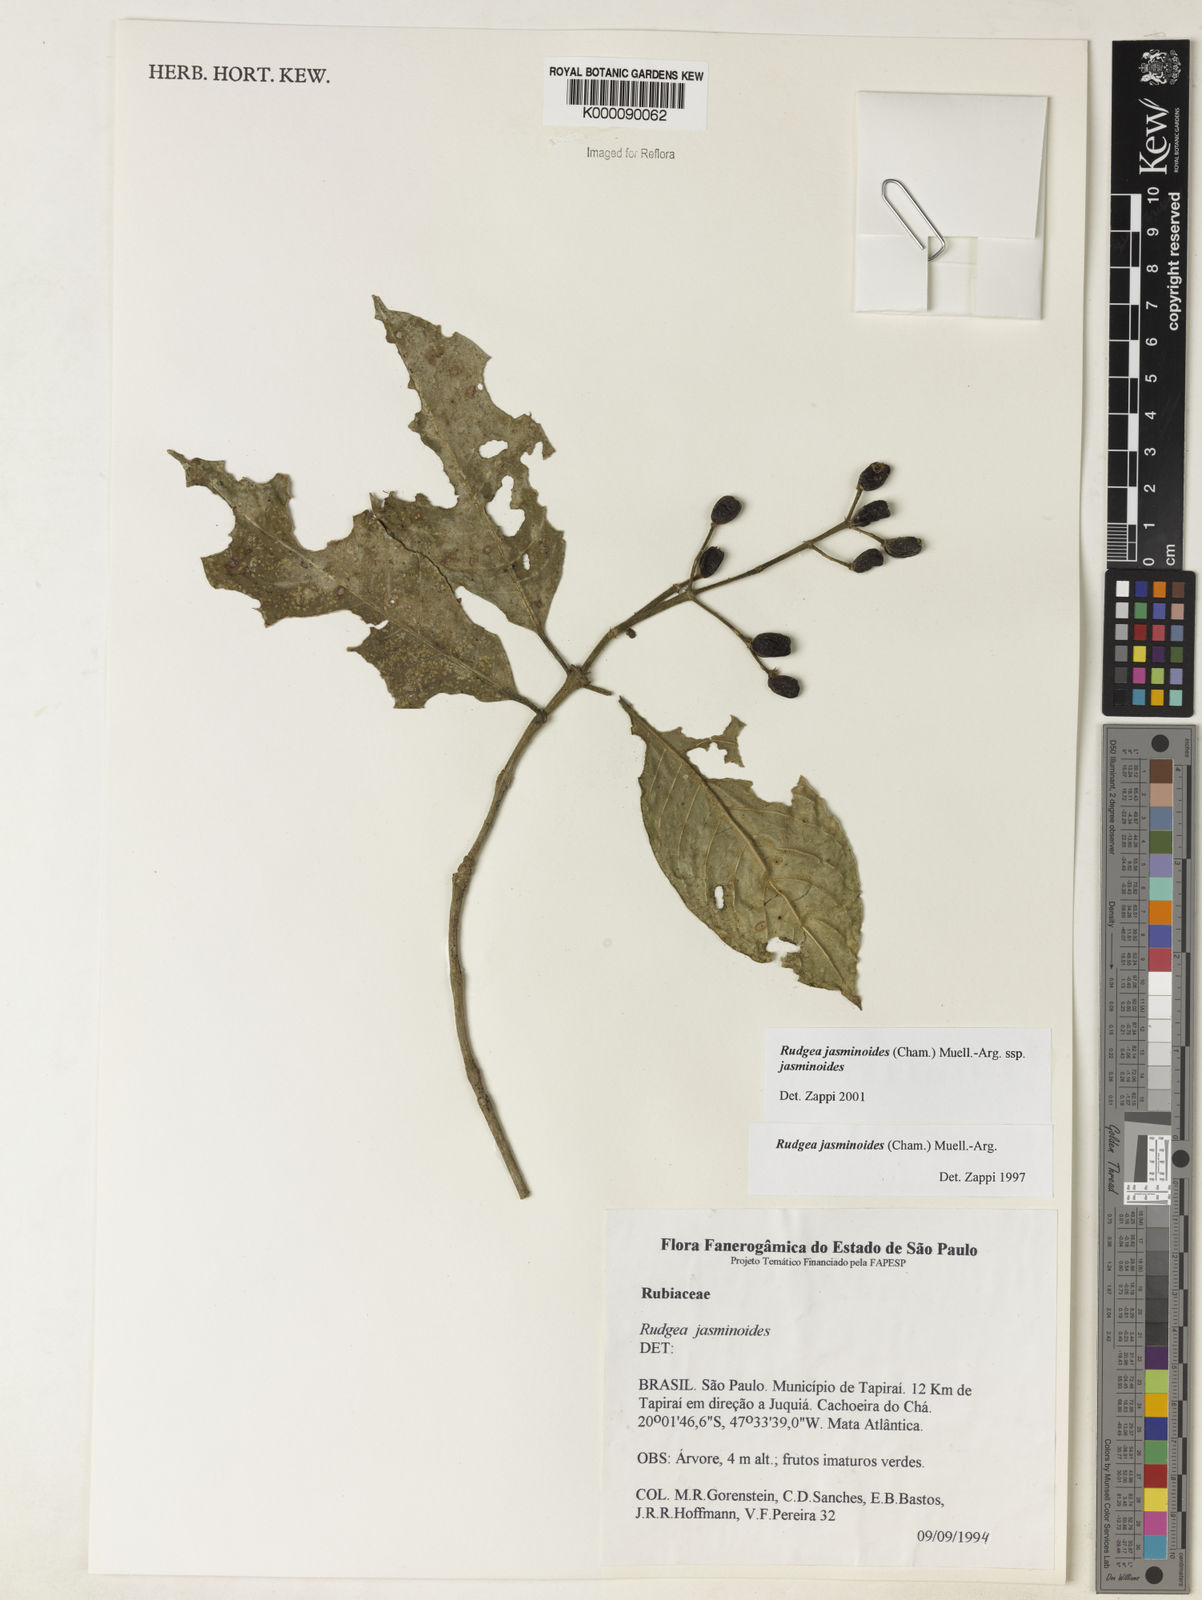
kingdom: Plantae
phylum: Tracheophyta
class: Magnoliopsida
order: Gentianales
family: Rubiaceae
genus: Rudgea
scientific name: Rudgea jasminoides
